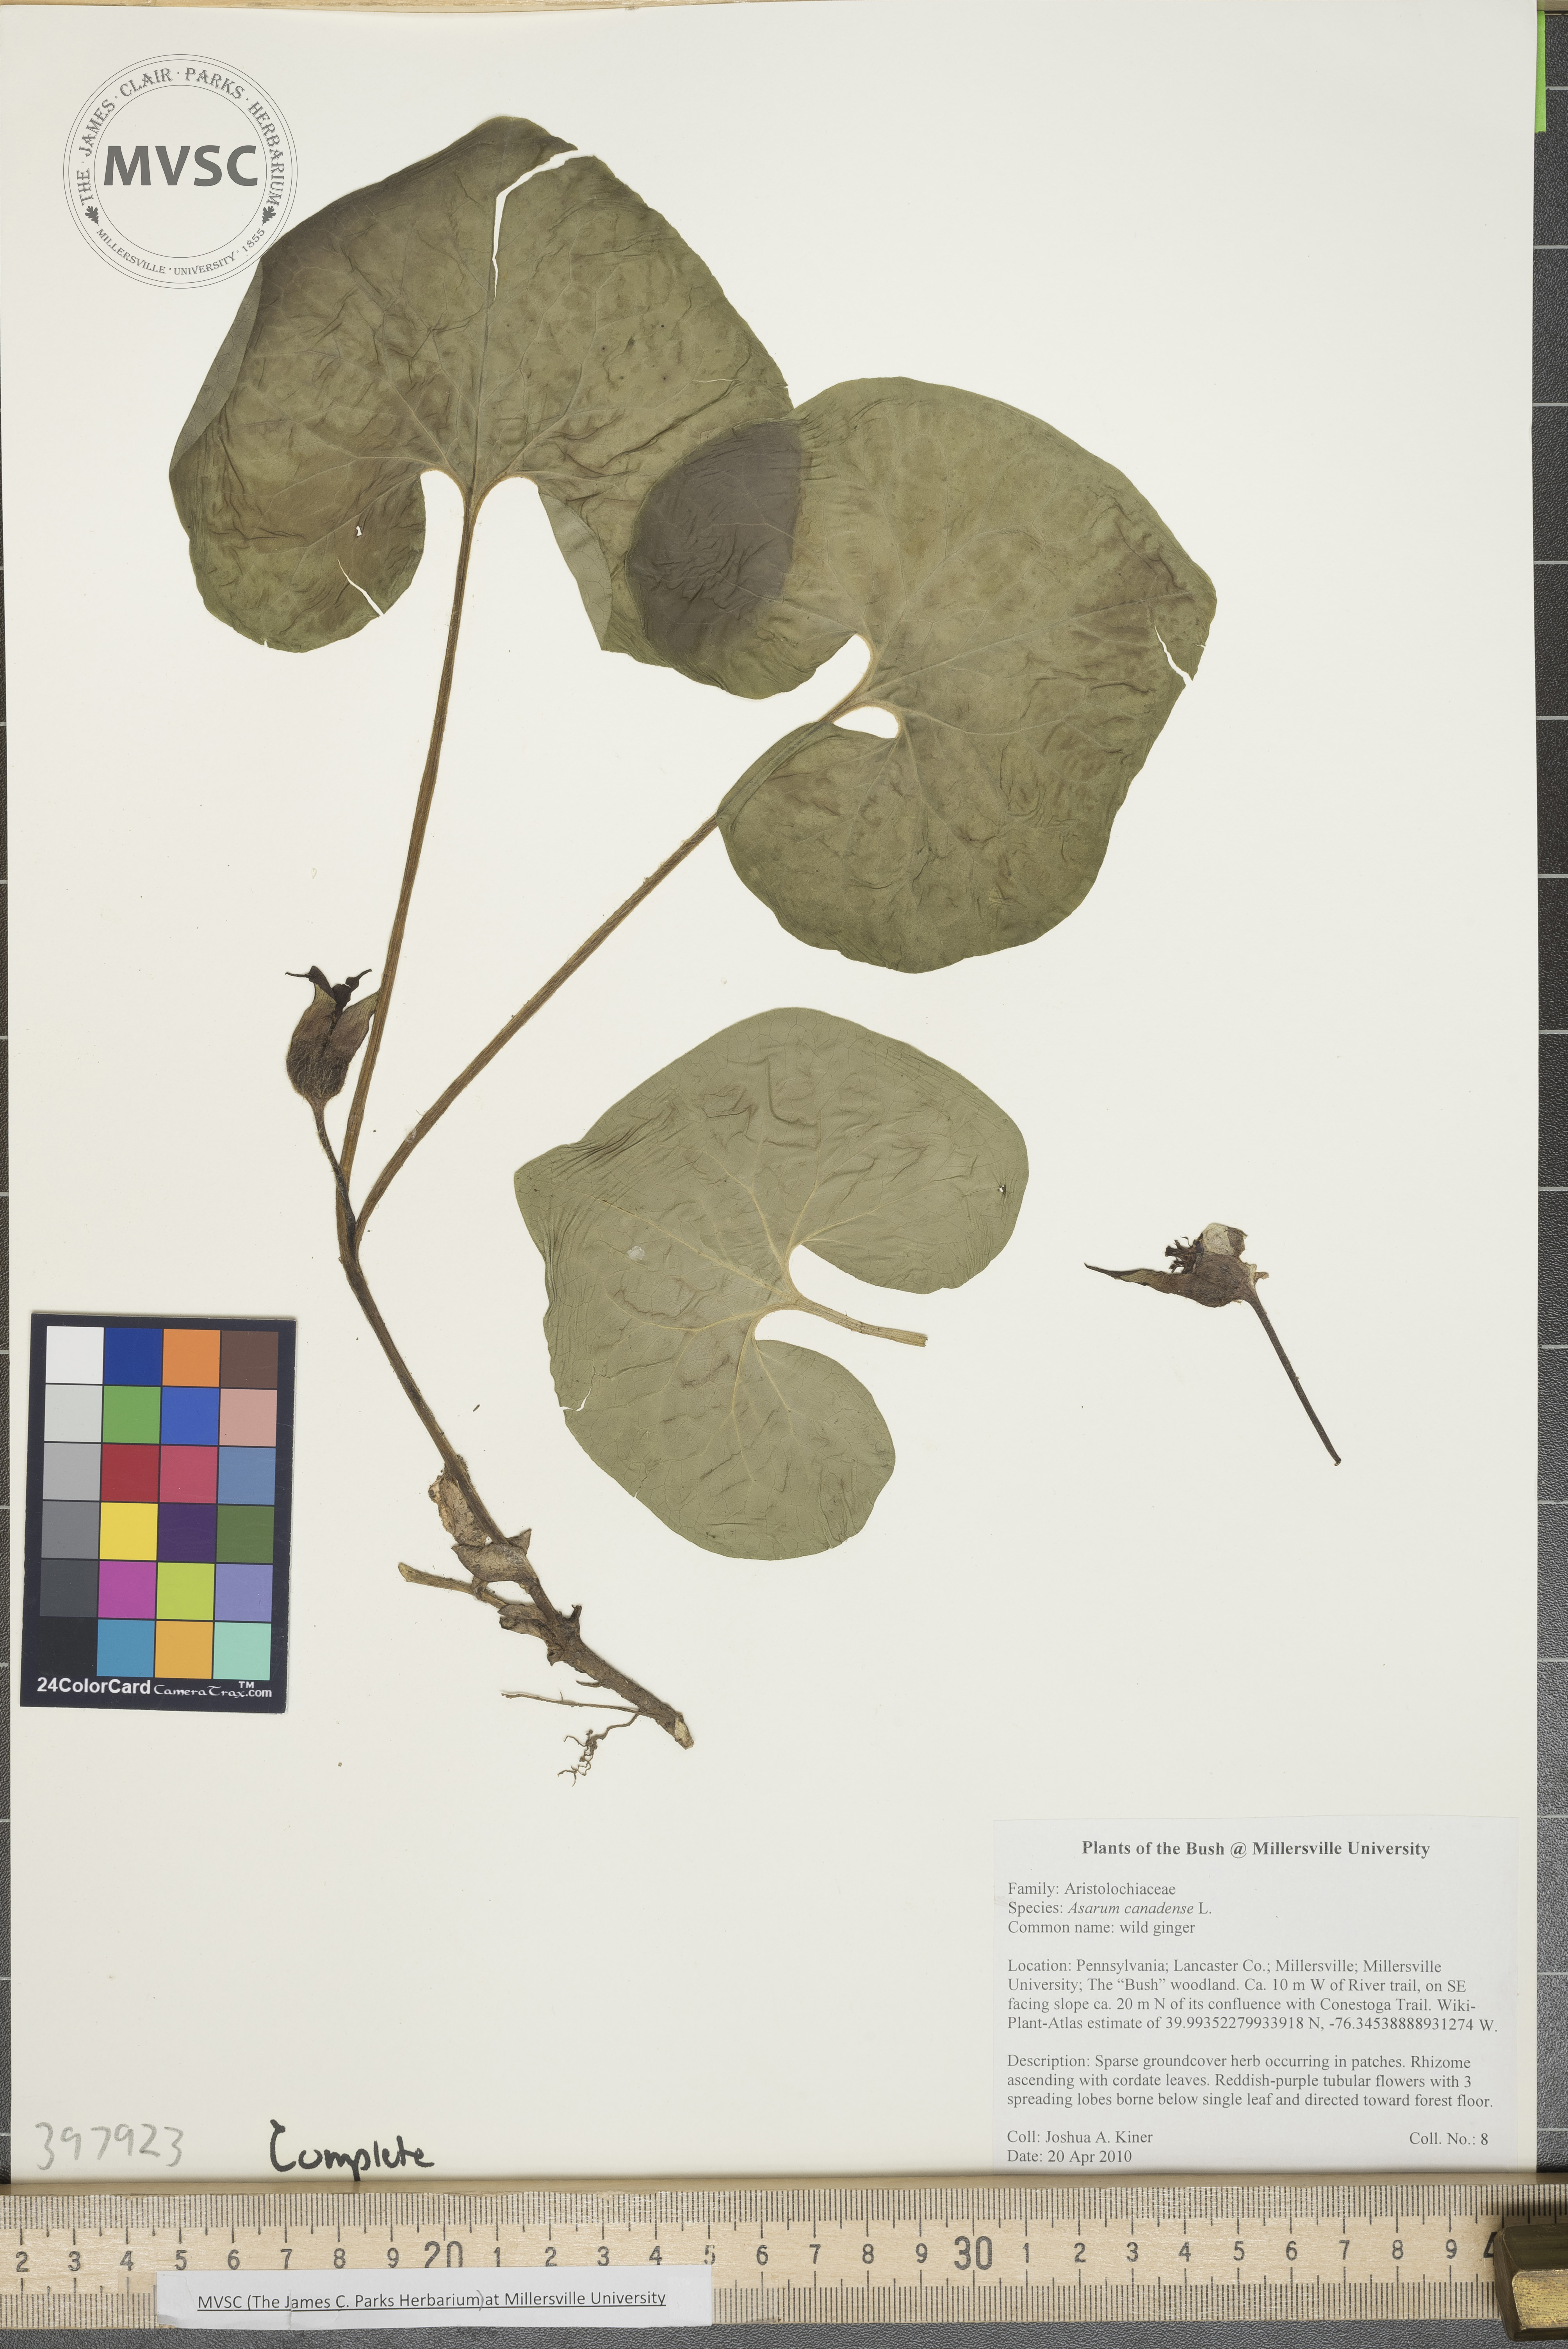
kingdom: Plantae
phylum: Tracheophyta
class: Magnoliopsida
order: Piperales
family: Aristolochiaceae
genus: Asarum
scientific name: Asarum canadense
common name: Wild ginger
